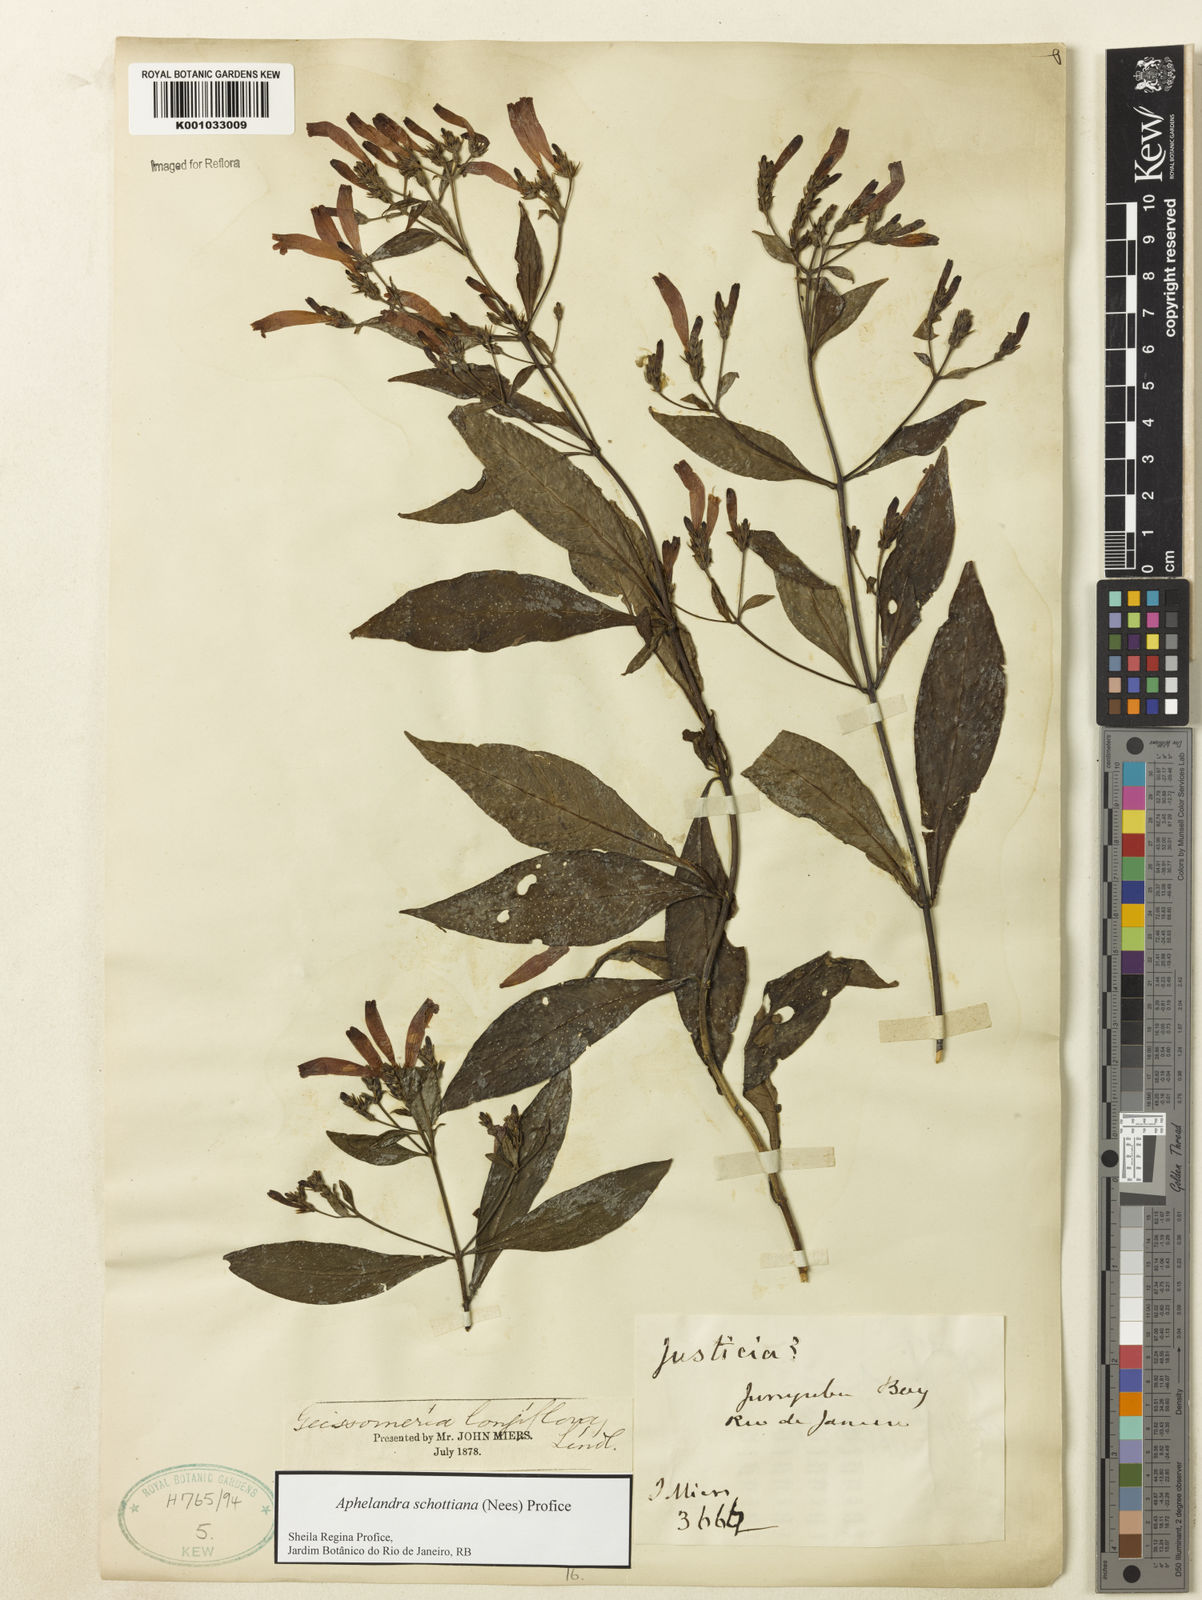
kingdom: Plantae
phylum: Tracheophyta
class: Magnoliopsida
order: Lamiales
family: Acanthaceae
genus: Aphelandra
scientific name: Aphelandra schottiana
